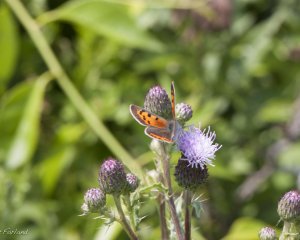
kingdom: Animalia
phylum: Arthropoda
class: Insecta
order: Lepidoptera
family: Lycaenidae
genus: Lycaena
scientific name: Lycaena phlaeas
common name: American Copper
